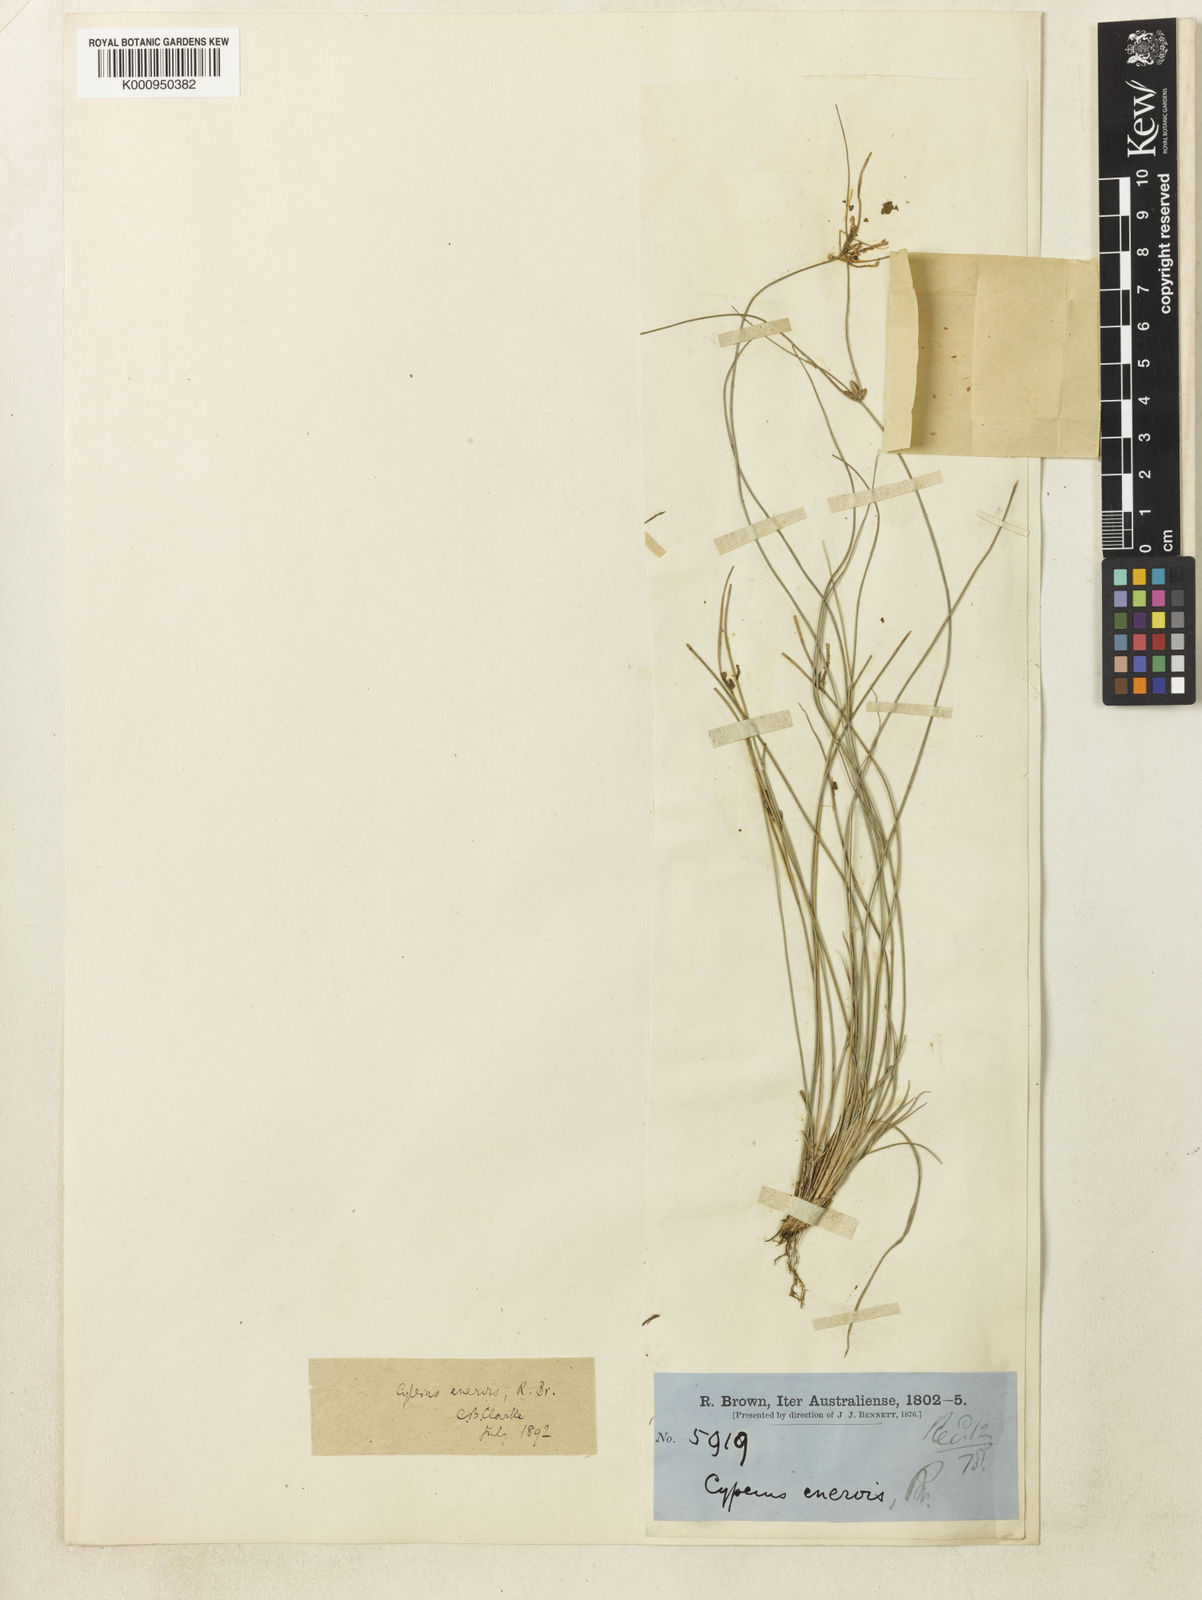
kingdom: Plantae
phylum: Tracheophyta
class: Liliopsida
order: Poales
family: Cyperaceae
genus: Cyperus
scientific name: Cyperus
